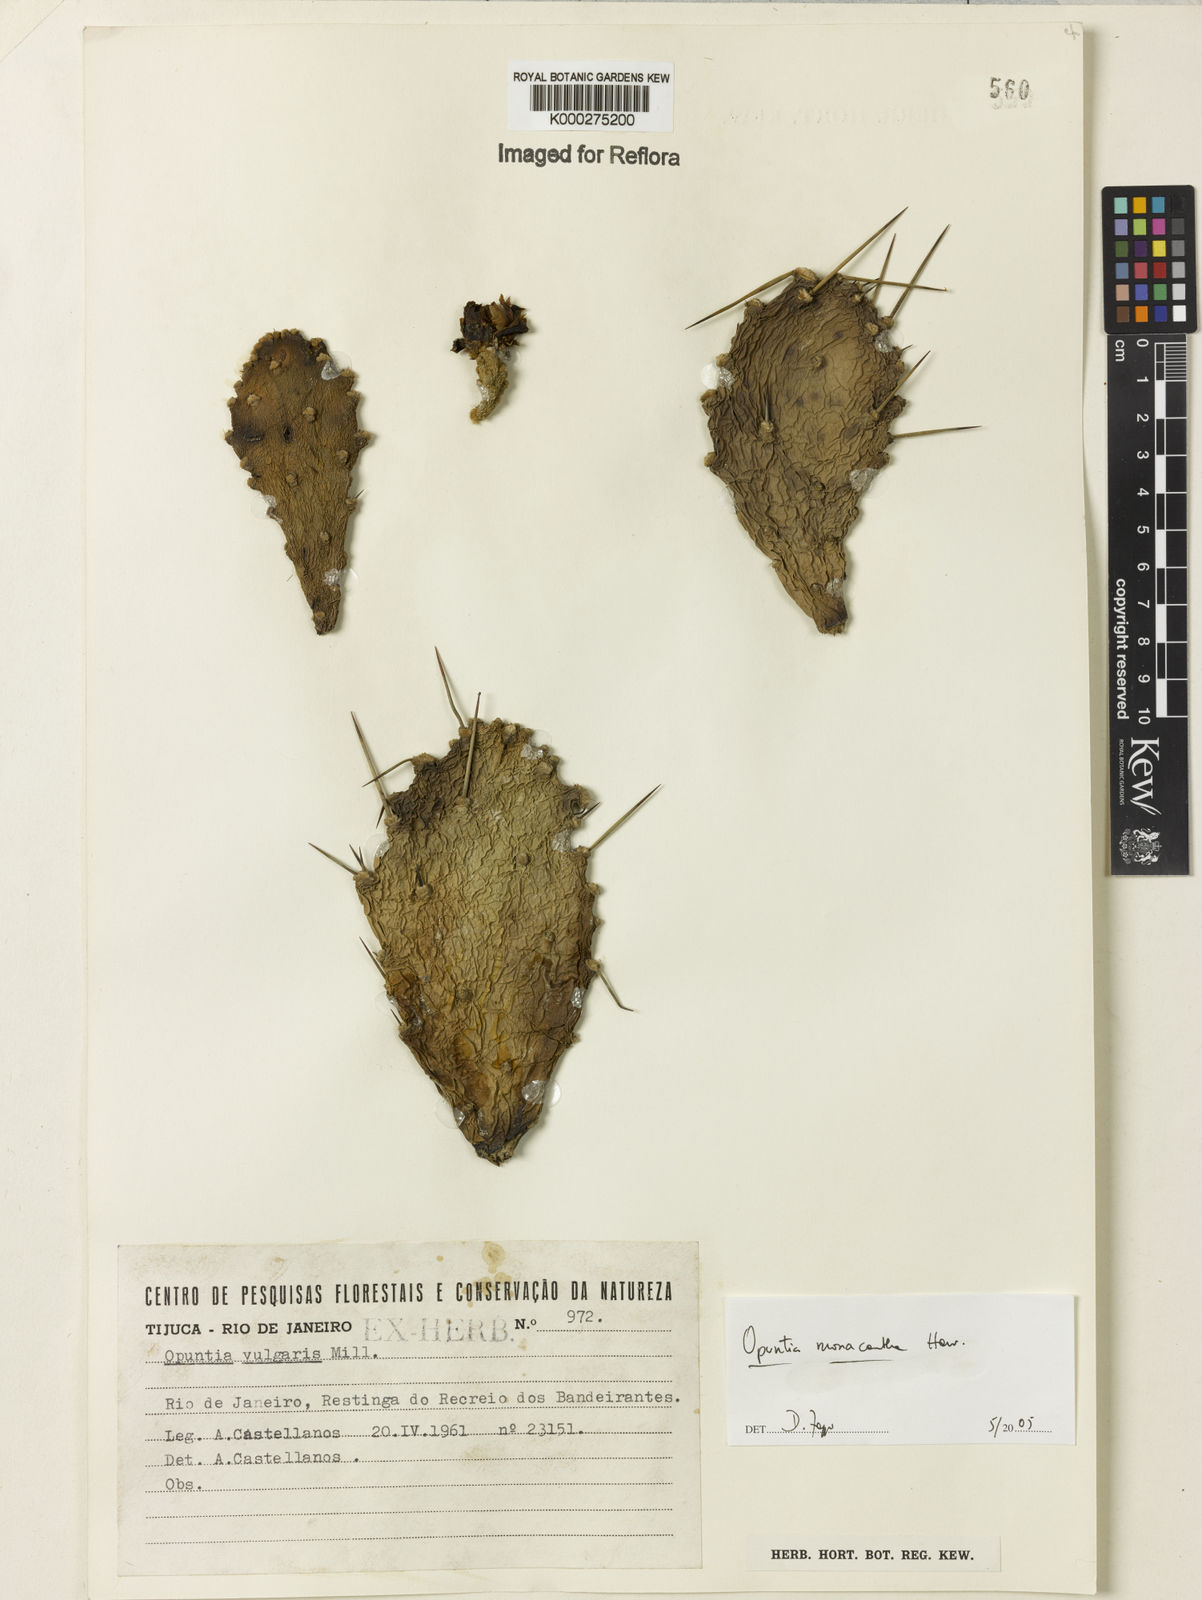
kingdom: Plantae
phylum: Tracheophyta
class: Magnoliopsida
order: Caryophyllales
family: Cactaceae
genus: Opuntia
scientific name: Opuntia monacantha
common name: Common pricklypear
